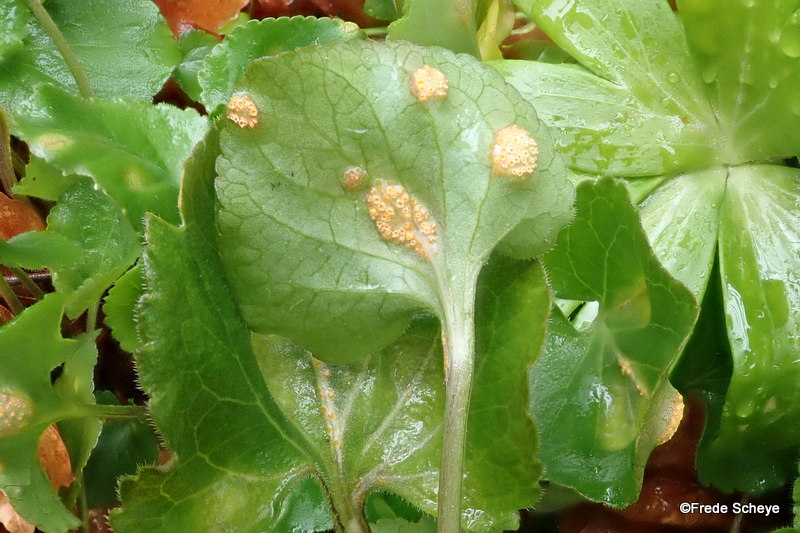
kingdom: Fungi
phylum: Basidiomycota
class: Pucciniomycetes
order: Pucciniales
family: Pucciniaceae
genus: Puccinia
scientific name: Puccinia violae
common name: viol-tvecellerust
